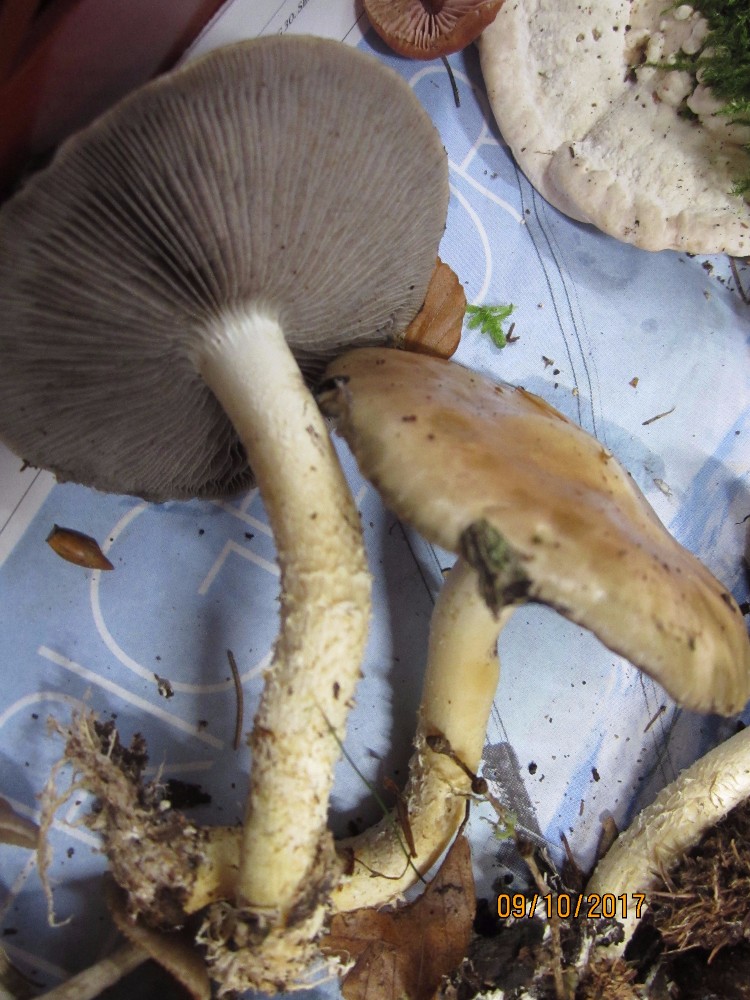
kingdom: Fungi
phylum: Basidiomycota
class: Agaricomycetes
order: Agaricales
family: Strophariaceae
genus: Stropharia
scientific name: Stropharia hornemannii
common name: nordisk bredblad
